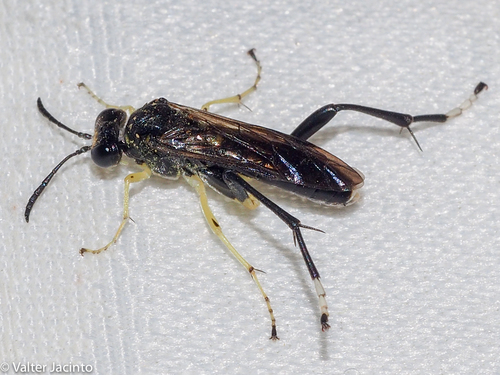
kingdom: Animalia
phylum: Arthropoda
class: Insecta
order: Hymenoptera
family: Tenthredinidae
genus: Macrophya
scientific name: Macrophya montana
